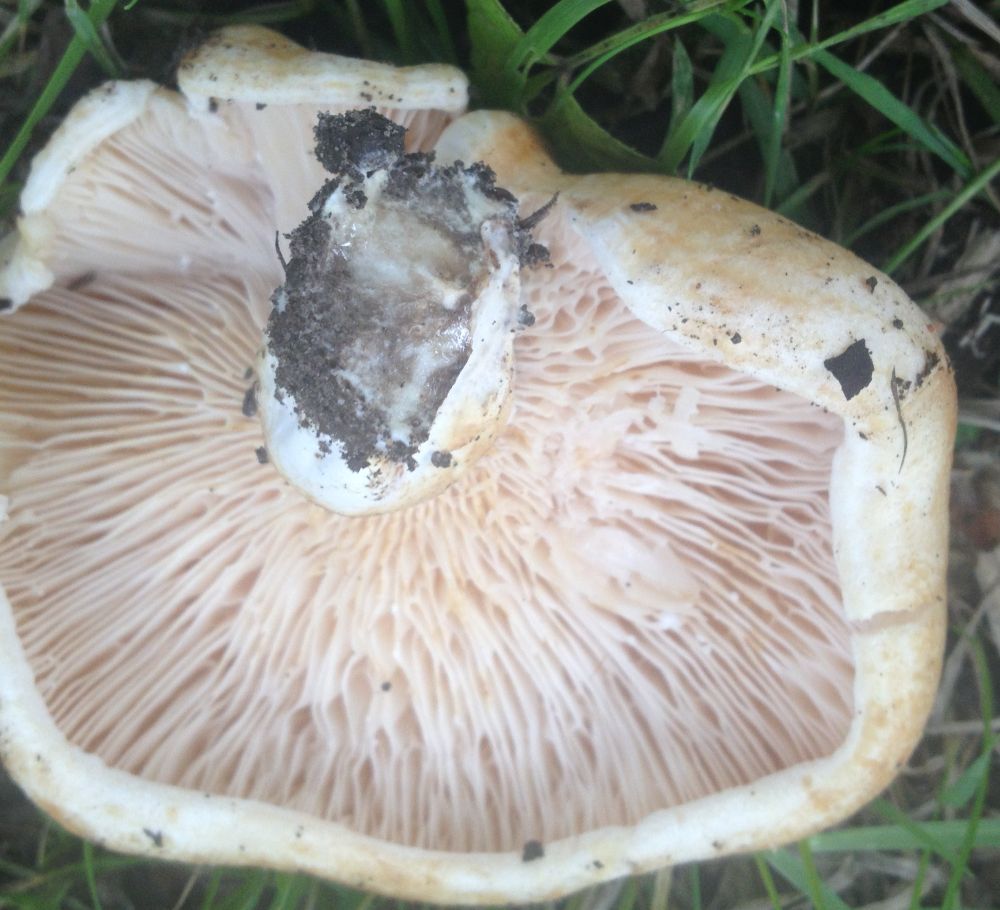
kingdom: Fungi
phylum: Basidiomycota
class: Agaricomycetes
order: Russulales
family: Russulaceae
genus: Lactarius
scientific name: Lactarius
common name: mælkehat
